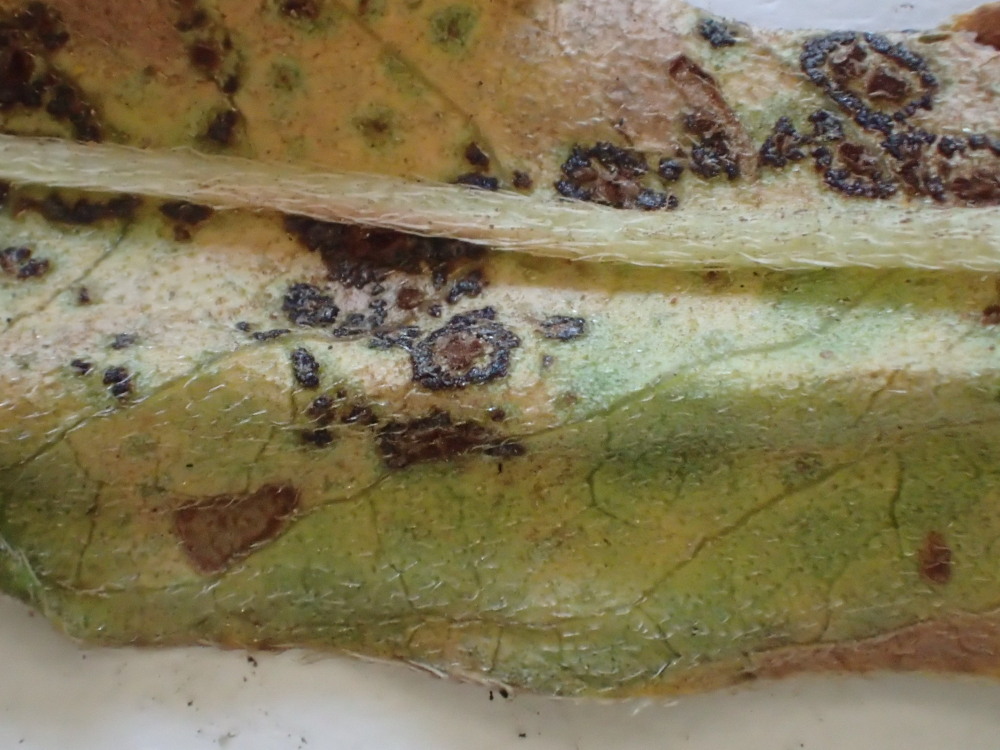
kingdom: Fungi
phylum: Basidiomycota
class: Pucciniomycetes
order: Pucciniales
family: Pucciniaceae
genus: Puccinia
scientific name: Puccinia polygoni-amphibii
